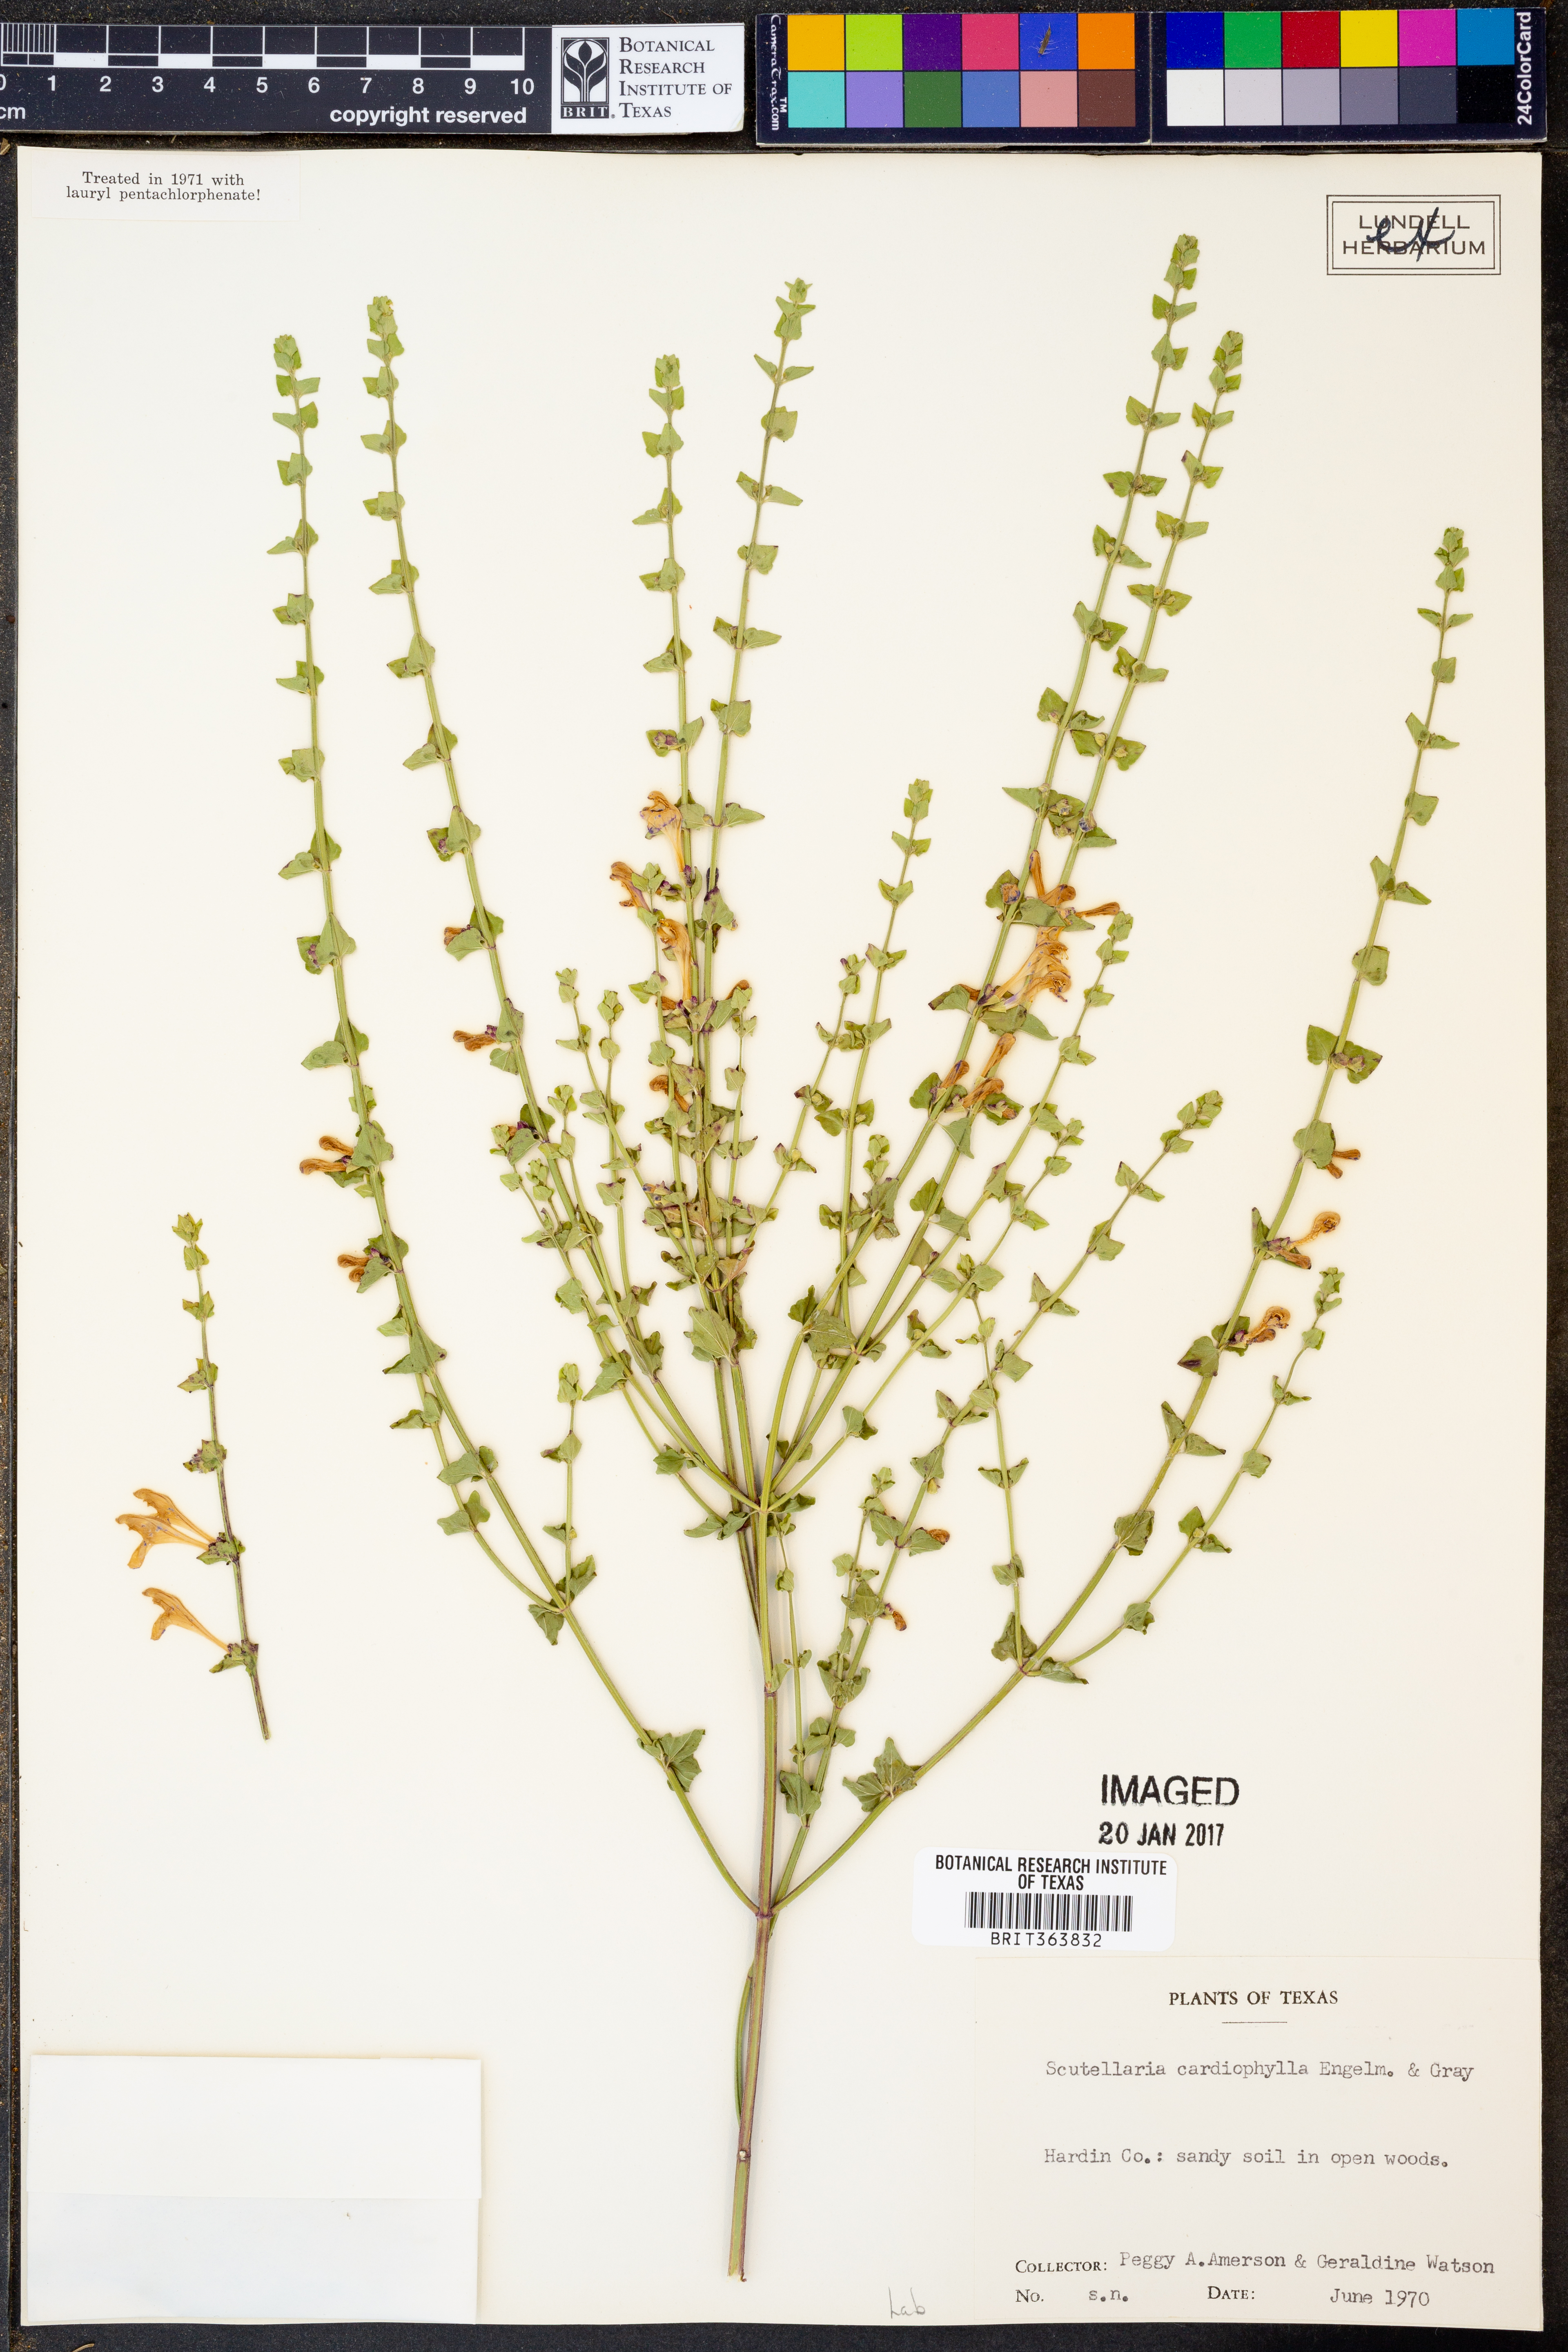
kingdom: Plantae
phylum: Tracheophyta
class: Magnoliopsida
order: Lamiales
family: Lamiaceae
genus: Scutellaria
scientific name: Scutellaria cardiophylla
